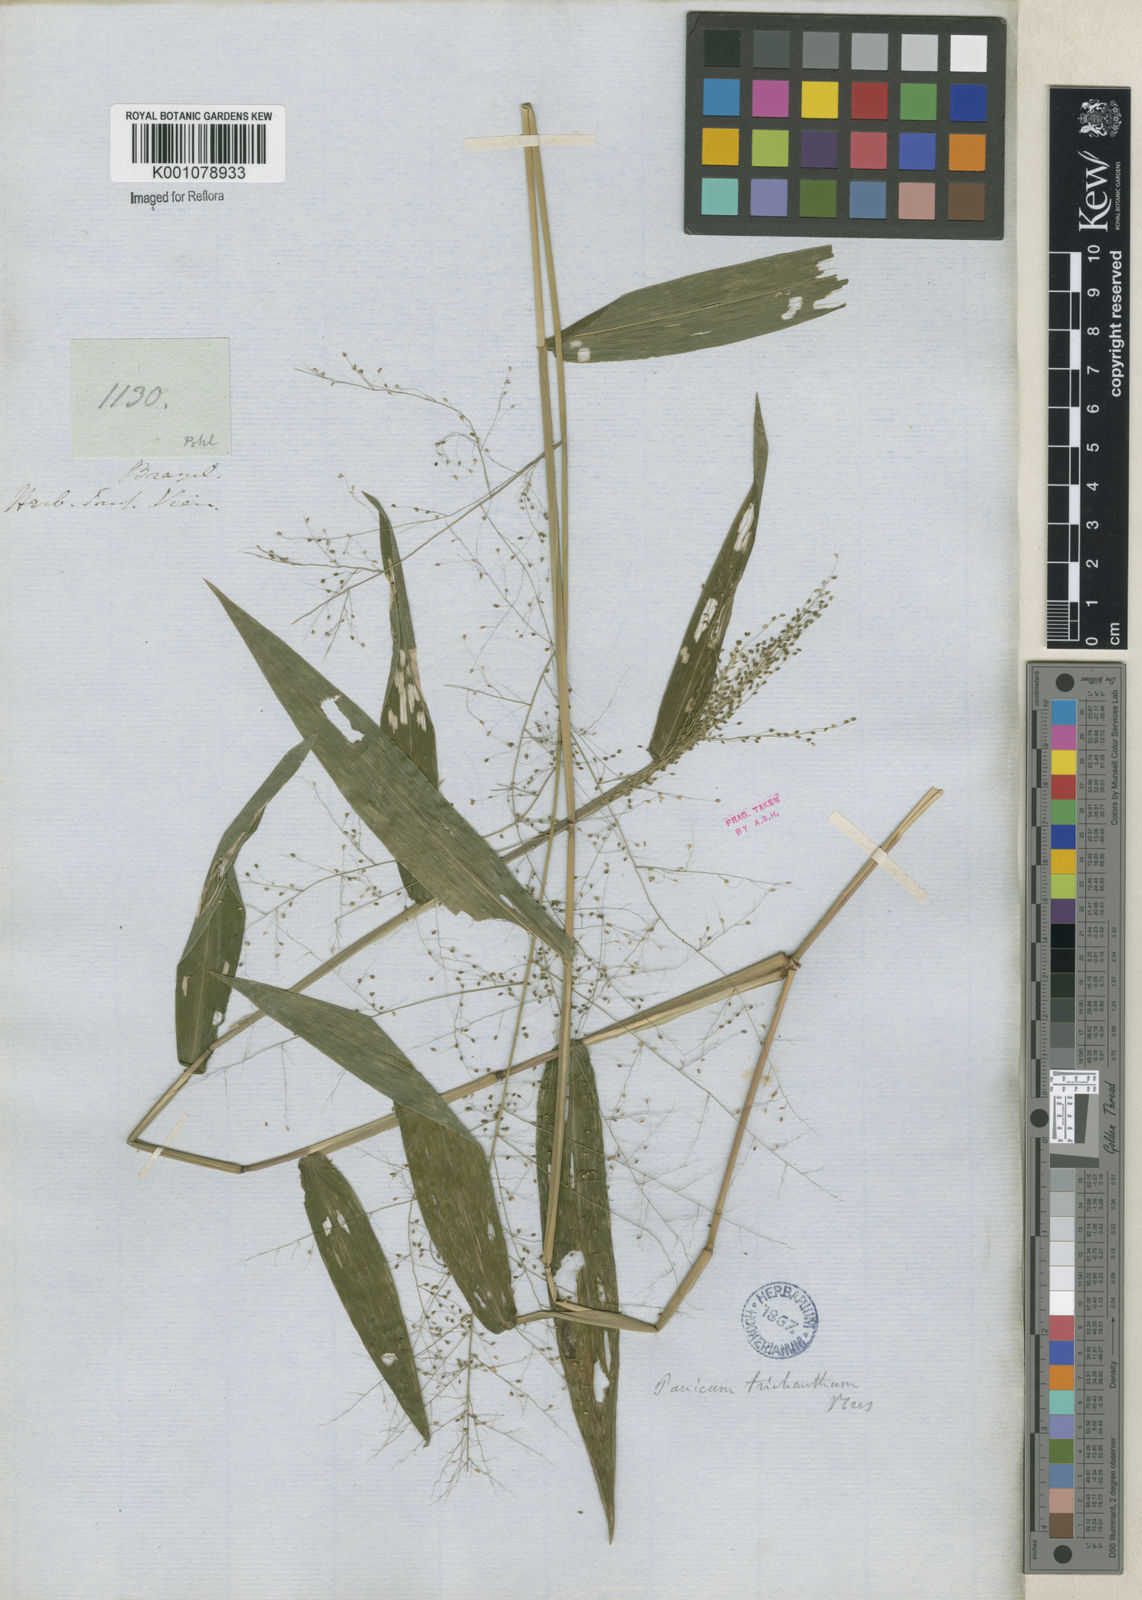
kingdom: Plantae
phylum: Tracheophyta
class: Liliopsida
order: Poales
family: Poaceae
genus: Panicum
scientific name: Panicum
